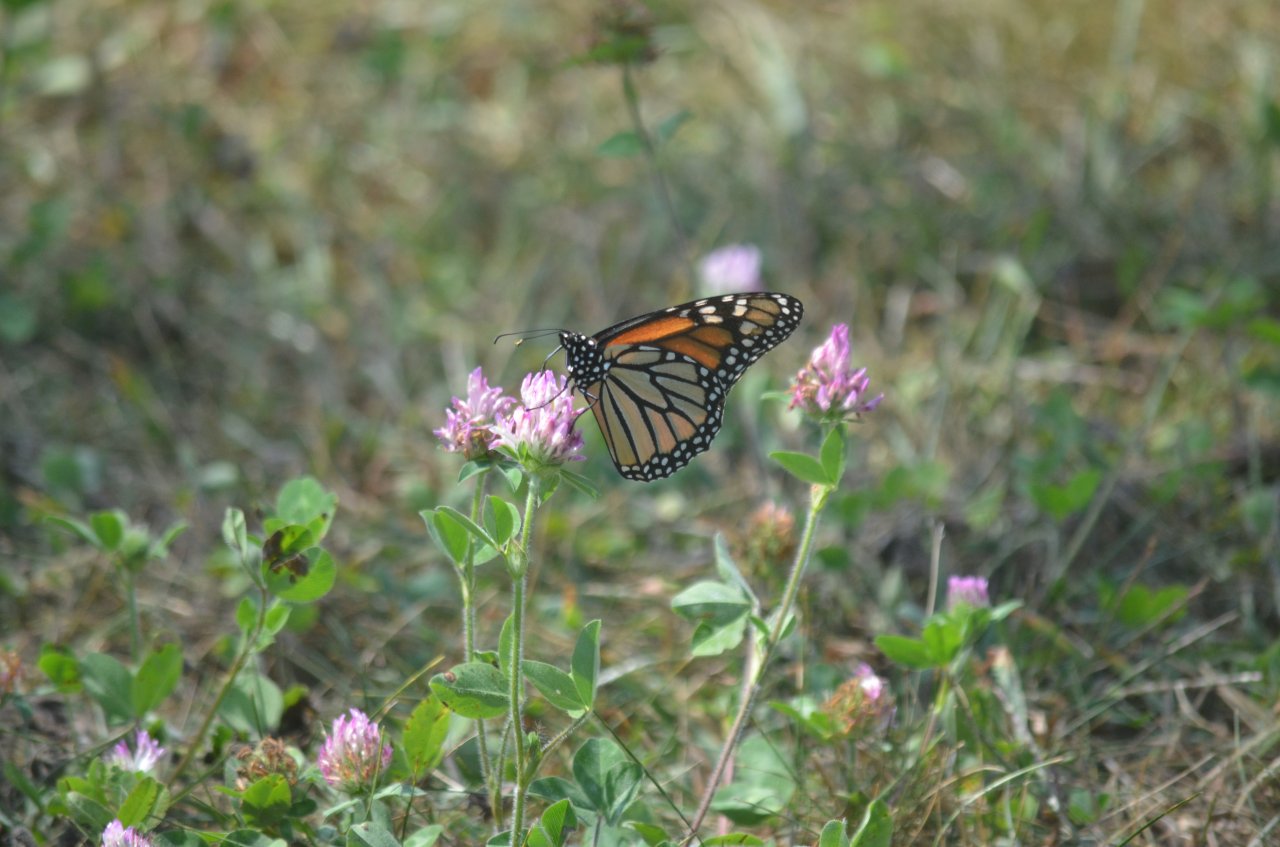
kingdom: Animalia
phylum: Arthropoda
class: Insecta
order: Lepidoptera
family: Nymphalidae
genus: Danaus
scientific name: Danaus plexippus
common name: Monarch
